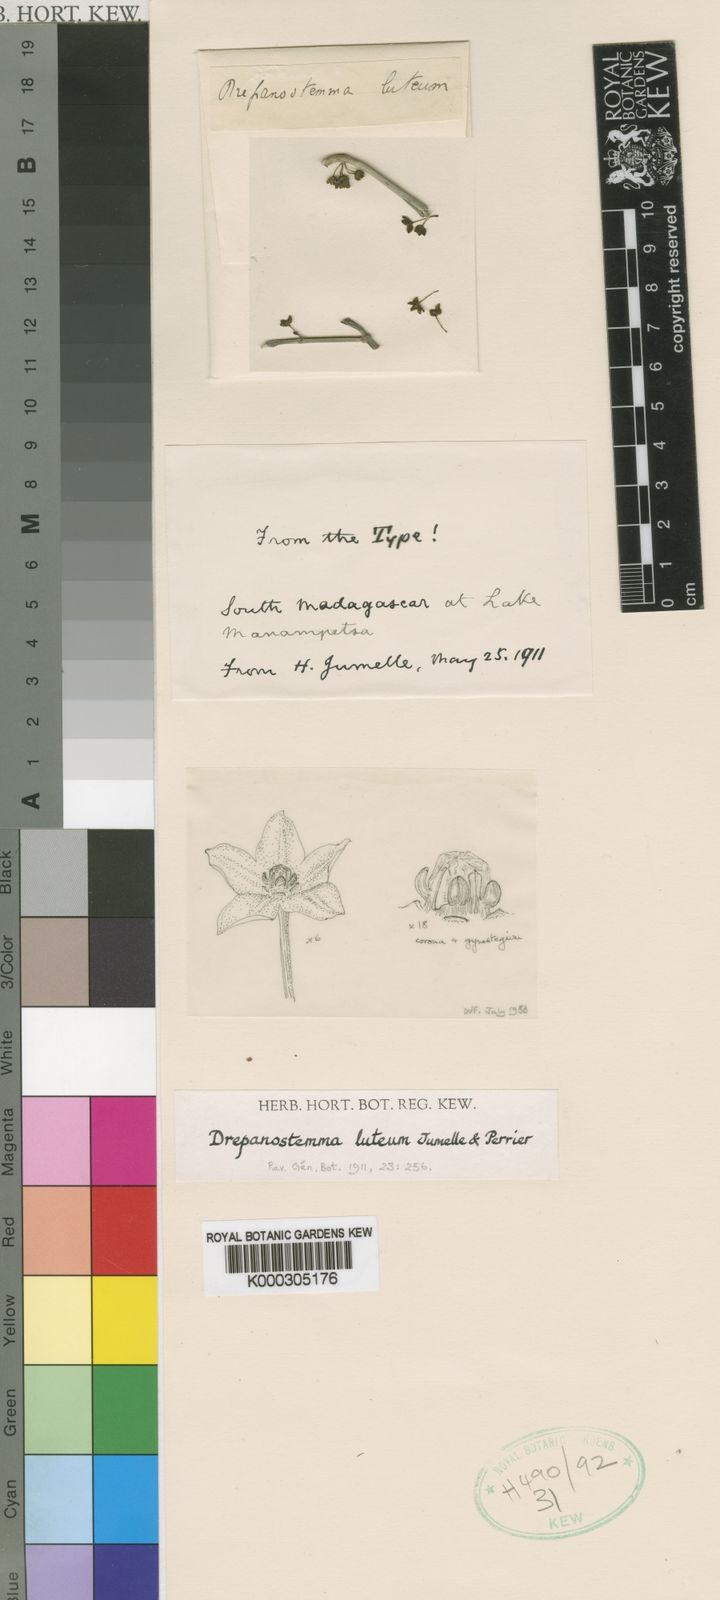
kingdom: Plantae
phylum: Tracheophyta
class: Magnoliopsida
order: Gentianales
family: Apocynaceae
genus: Cynanchum
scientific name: Cynanchum decorsei
